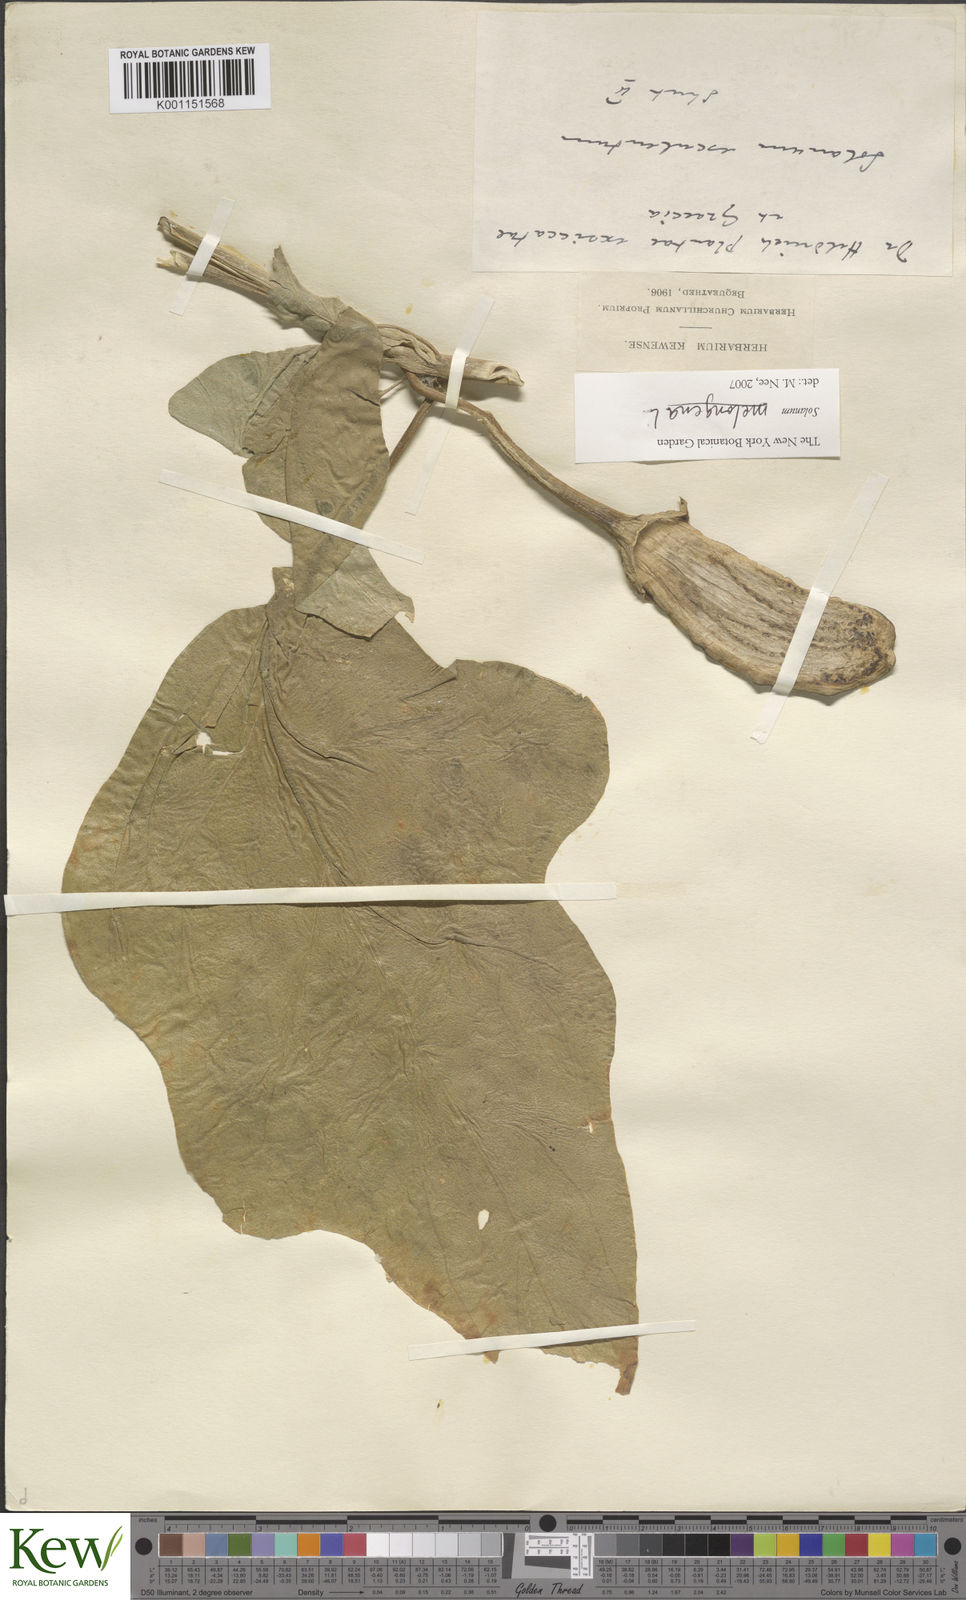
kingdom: Plantae
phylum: Tracheophyta
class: Magnoliopsida
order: Solanales
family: Solanaceae
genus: Solanum
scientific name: Solanum melongena
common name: Eggplant
